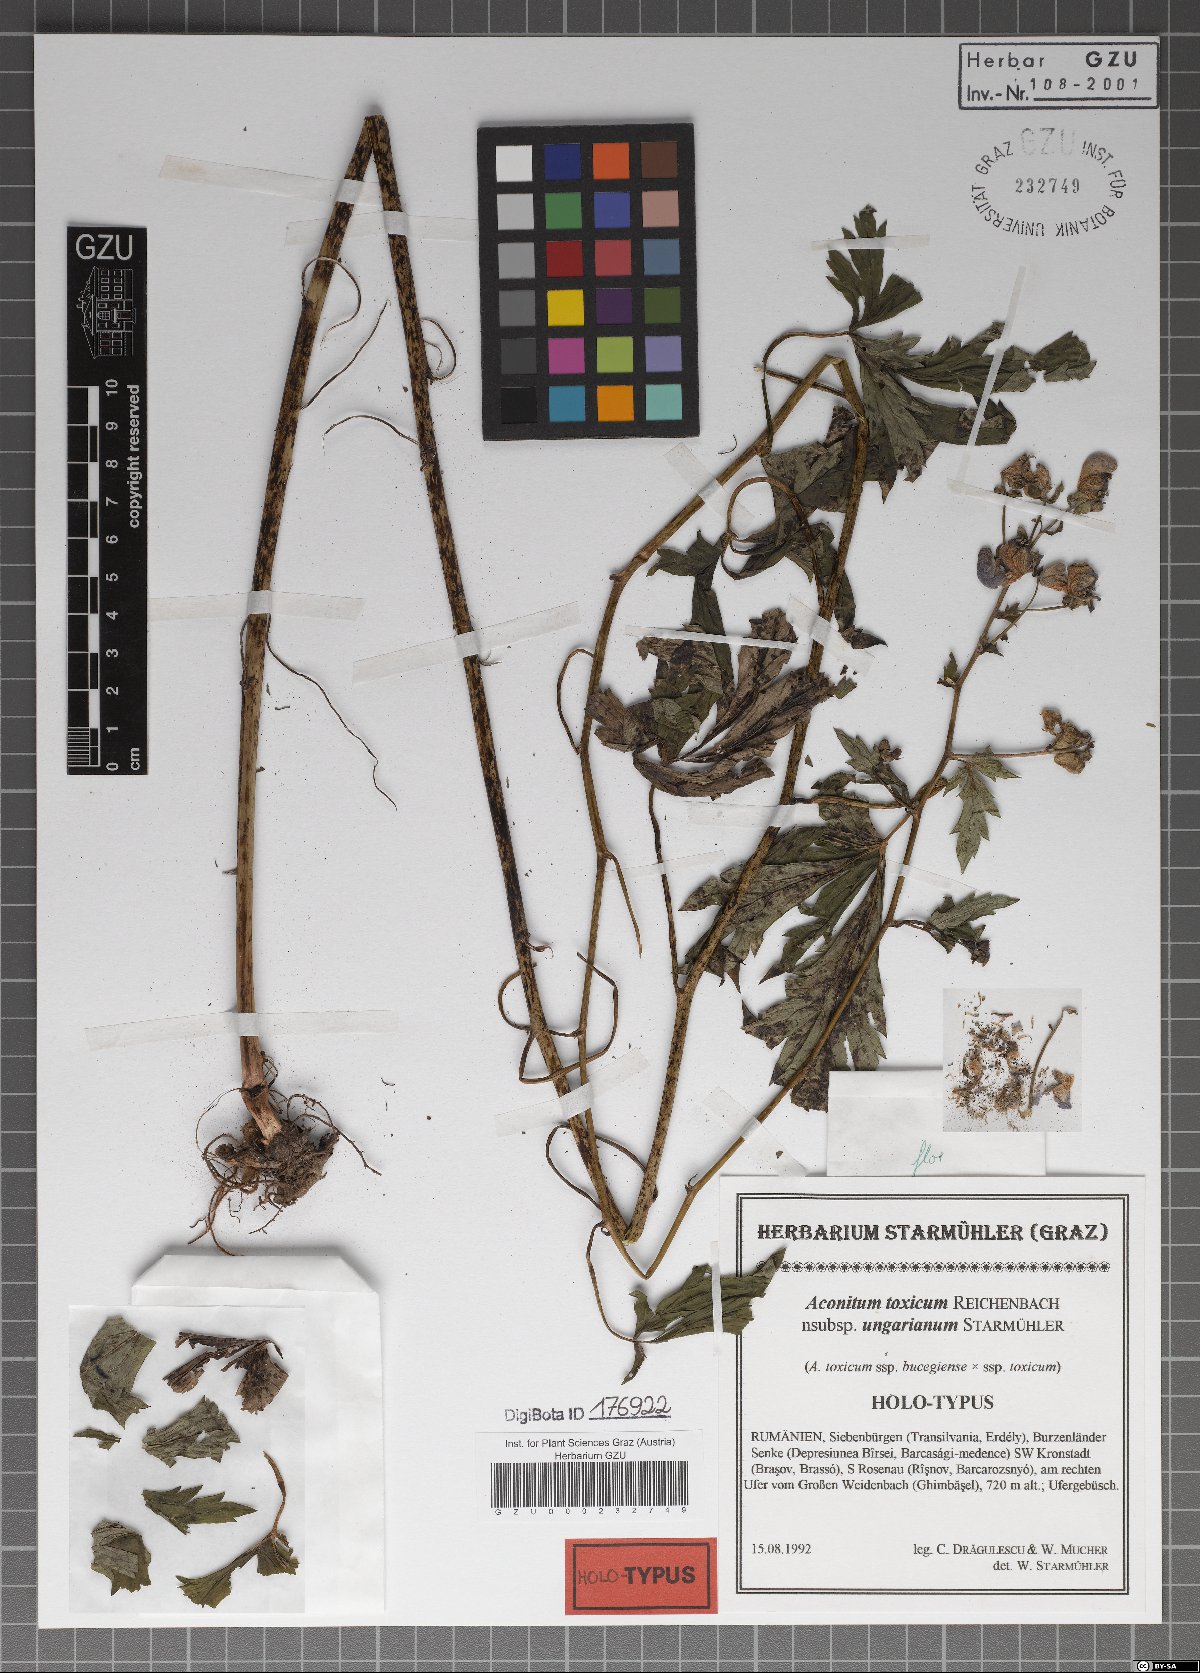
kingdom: Plantae
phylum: Tracheophyta
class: Magnoliopsida
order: Ranunculales
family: Ranunculaceae
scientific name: Ranunculaceae
